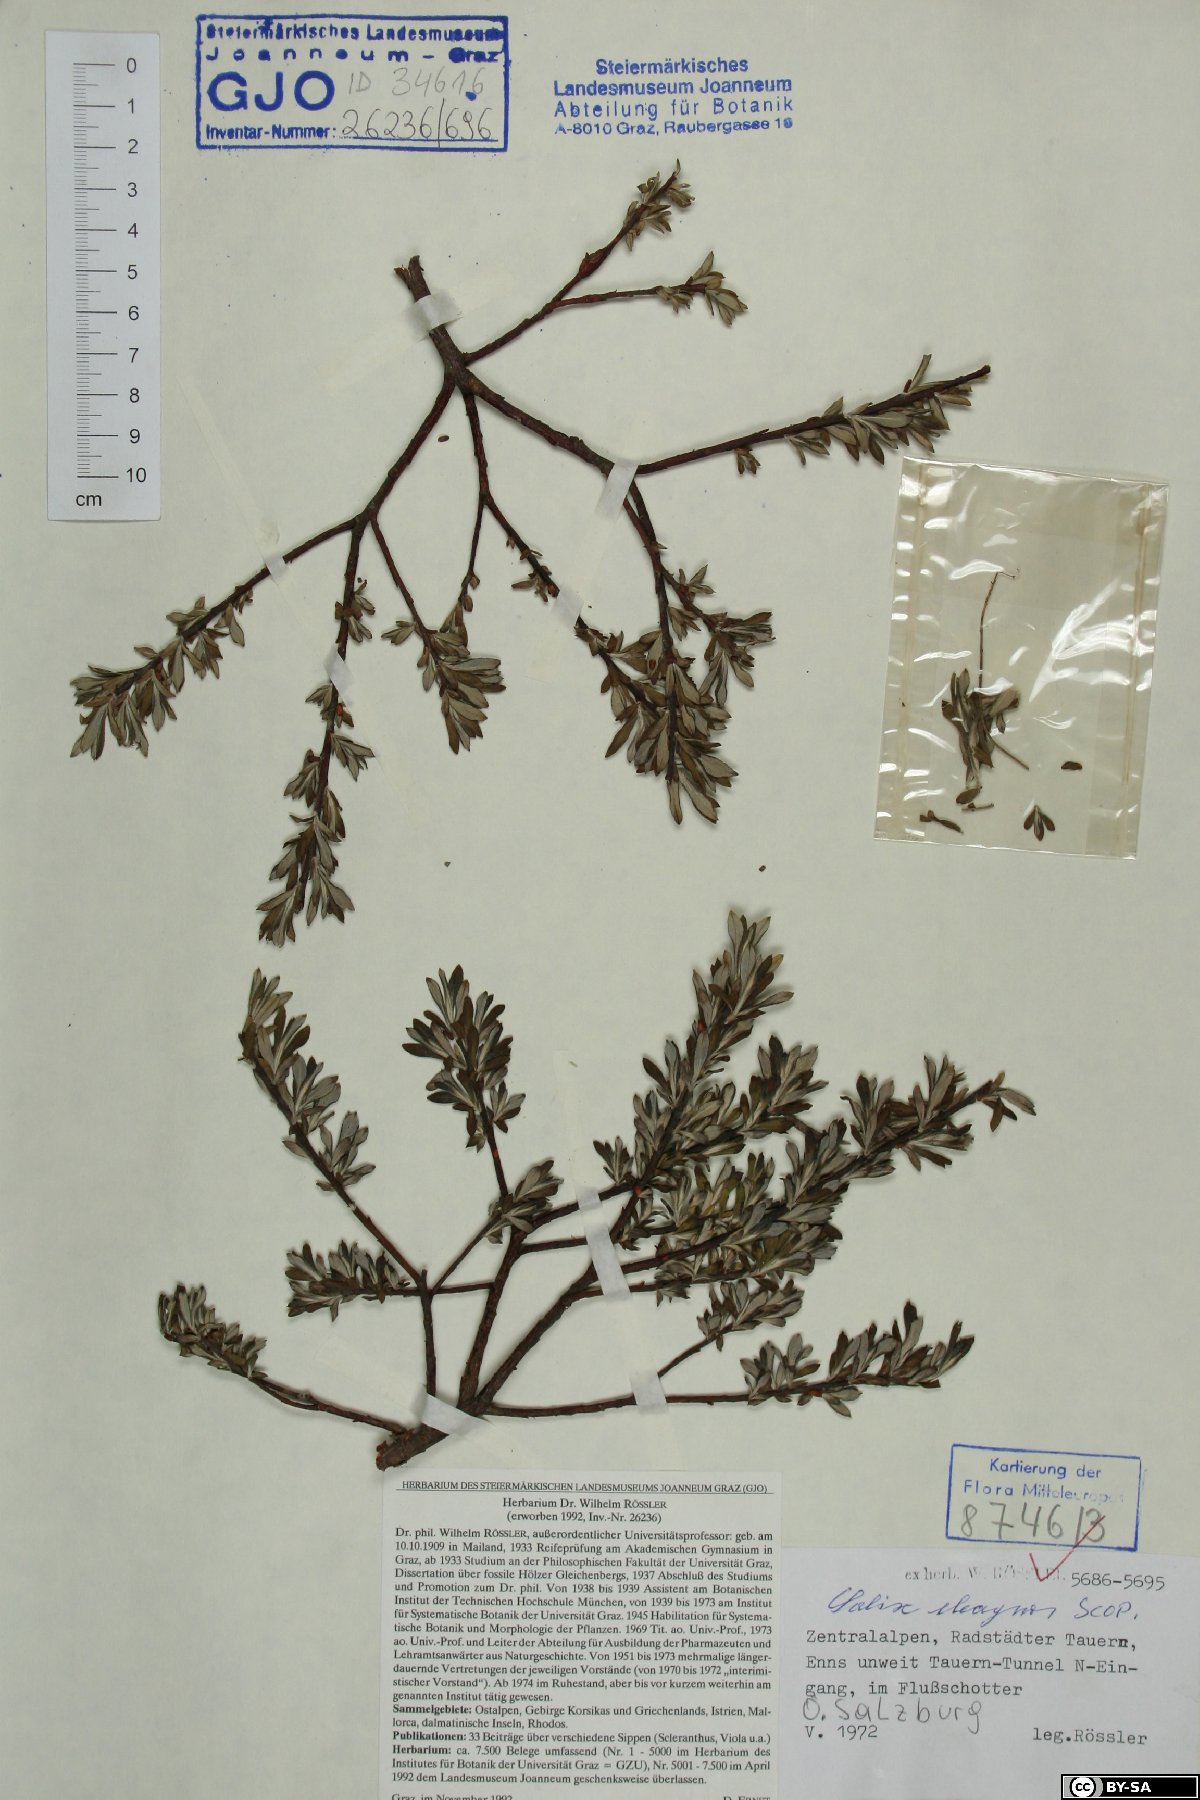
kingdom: Plantae
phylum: Tracheophyta
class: Magnoliopsida
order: Malpighiales
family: Salicaceae
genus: Salix
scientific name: Salix eleagnos
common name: Elaeagnus willow
